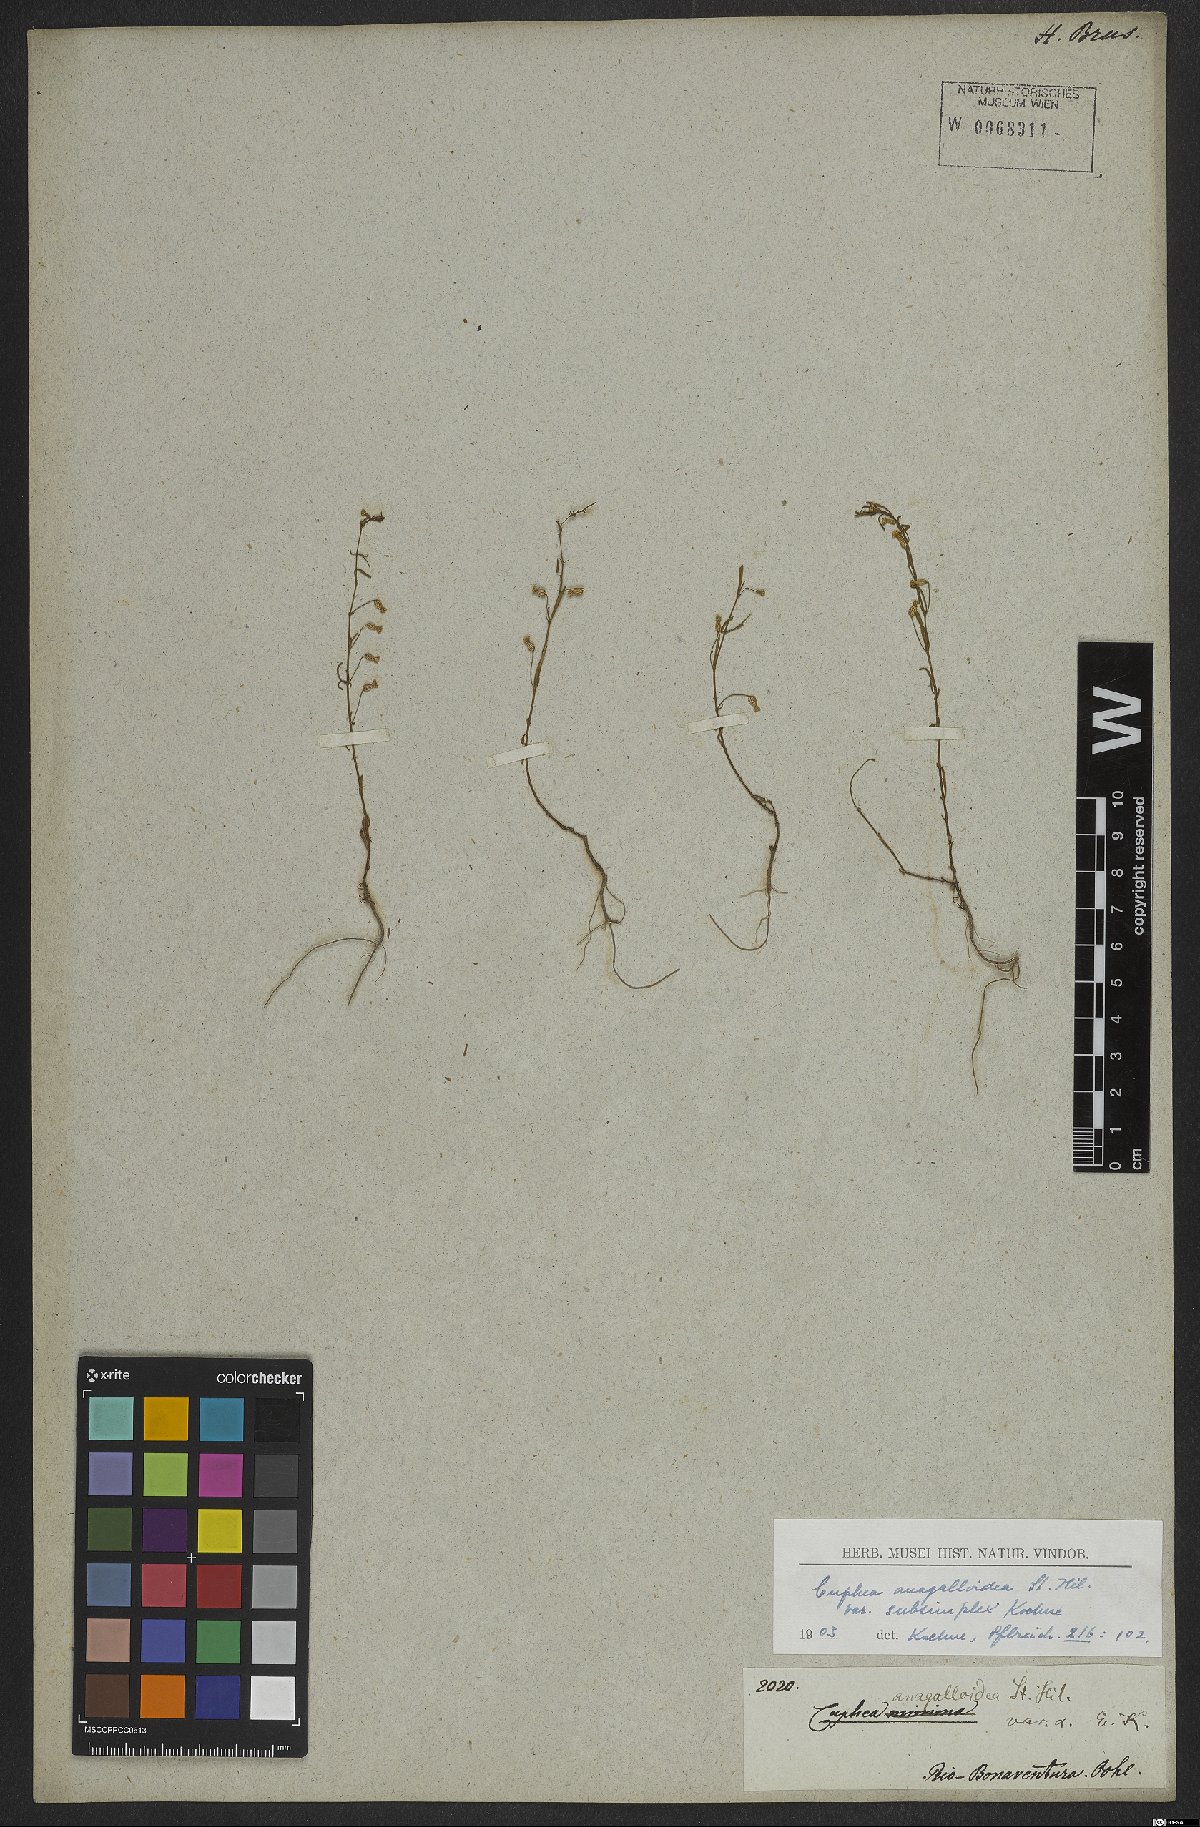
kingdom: Plantae
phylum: Tracheophyta
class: Magnoliopsida
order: Myrtales
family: Lythraceae
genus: Cuphea
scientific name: Cuphea anagalloidea
